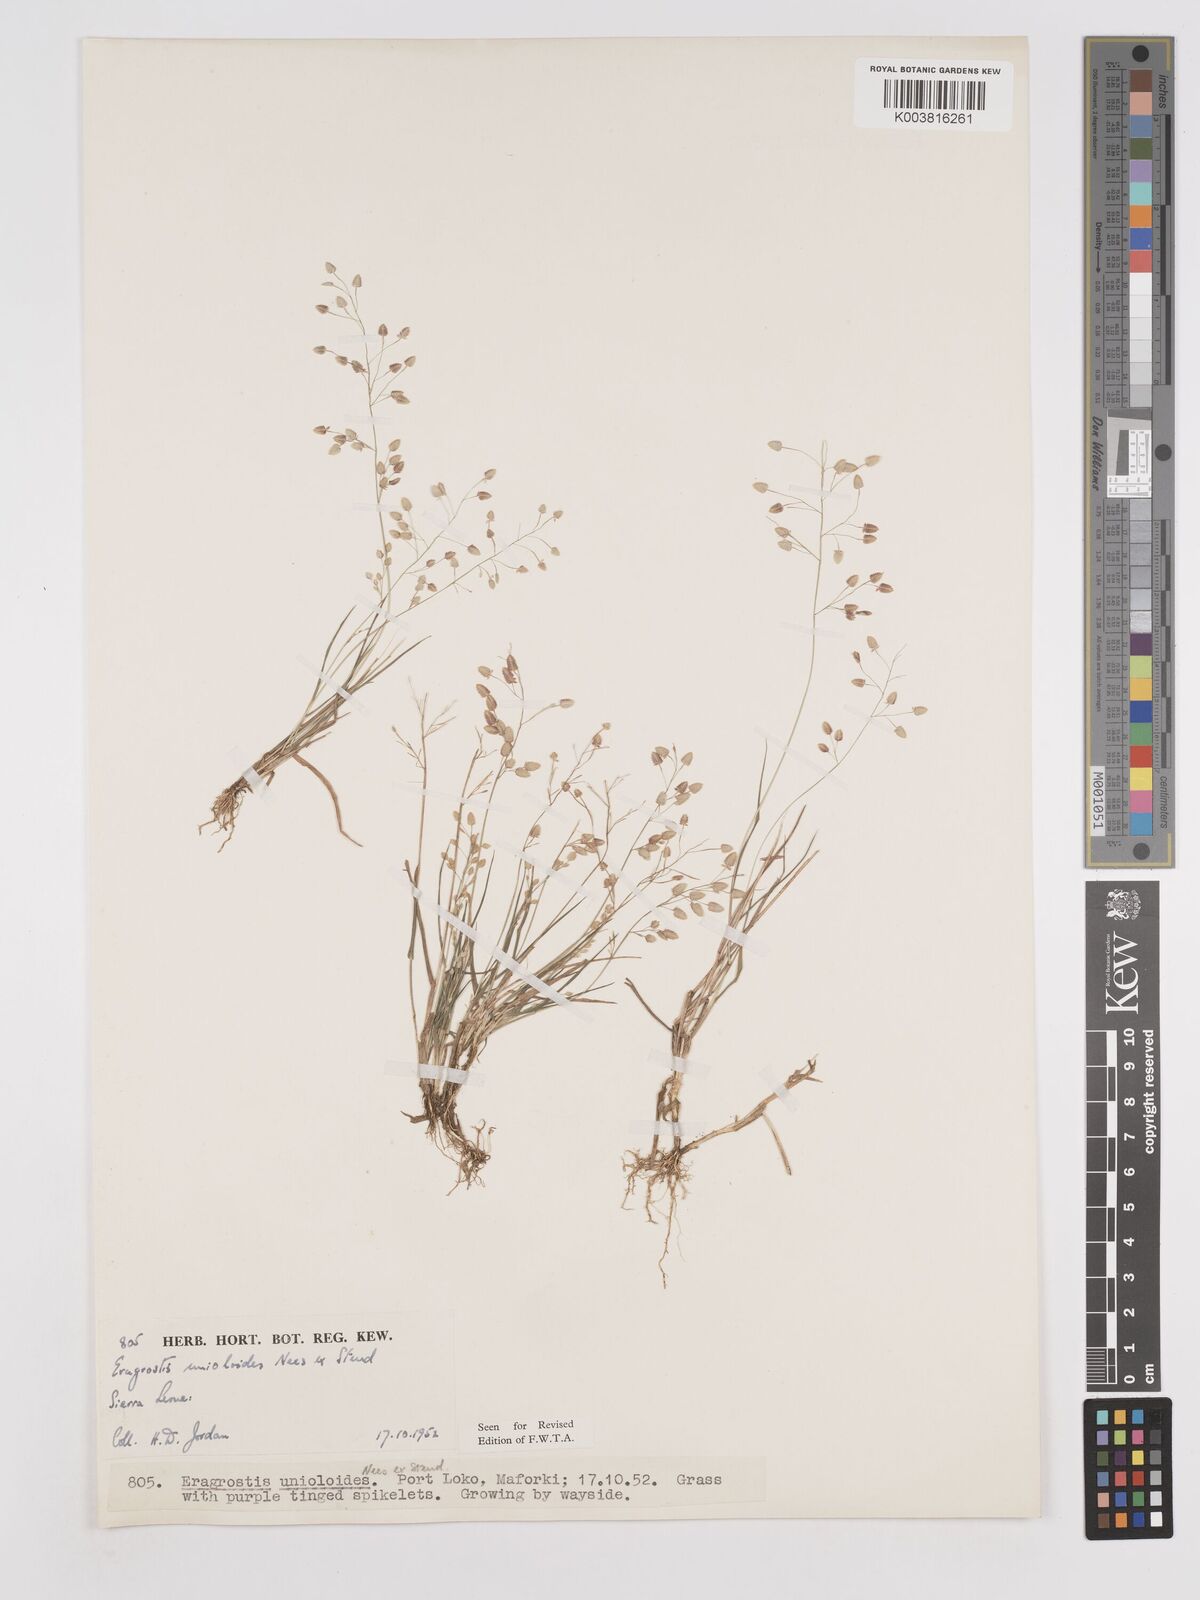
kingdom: Plantae
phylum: Tracheophyta
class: Liliopsida
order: Poales
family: Poaceae
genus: Eragrostis
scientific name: Eragrostis unioloides
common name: Chinese lovegrass
